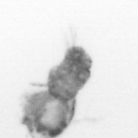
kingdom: Animalia
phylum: Arthropoda
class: Copepoda
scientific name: Copepoda
